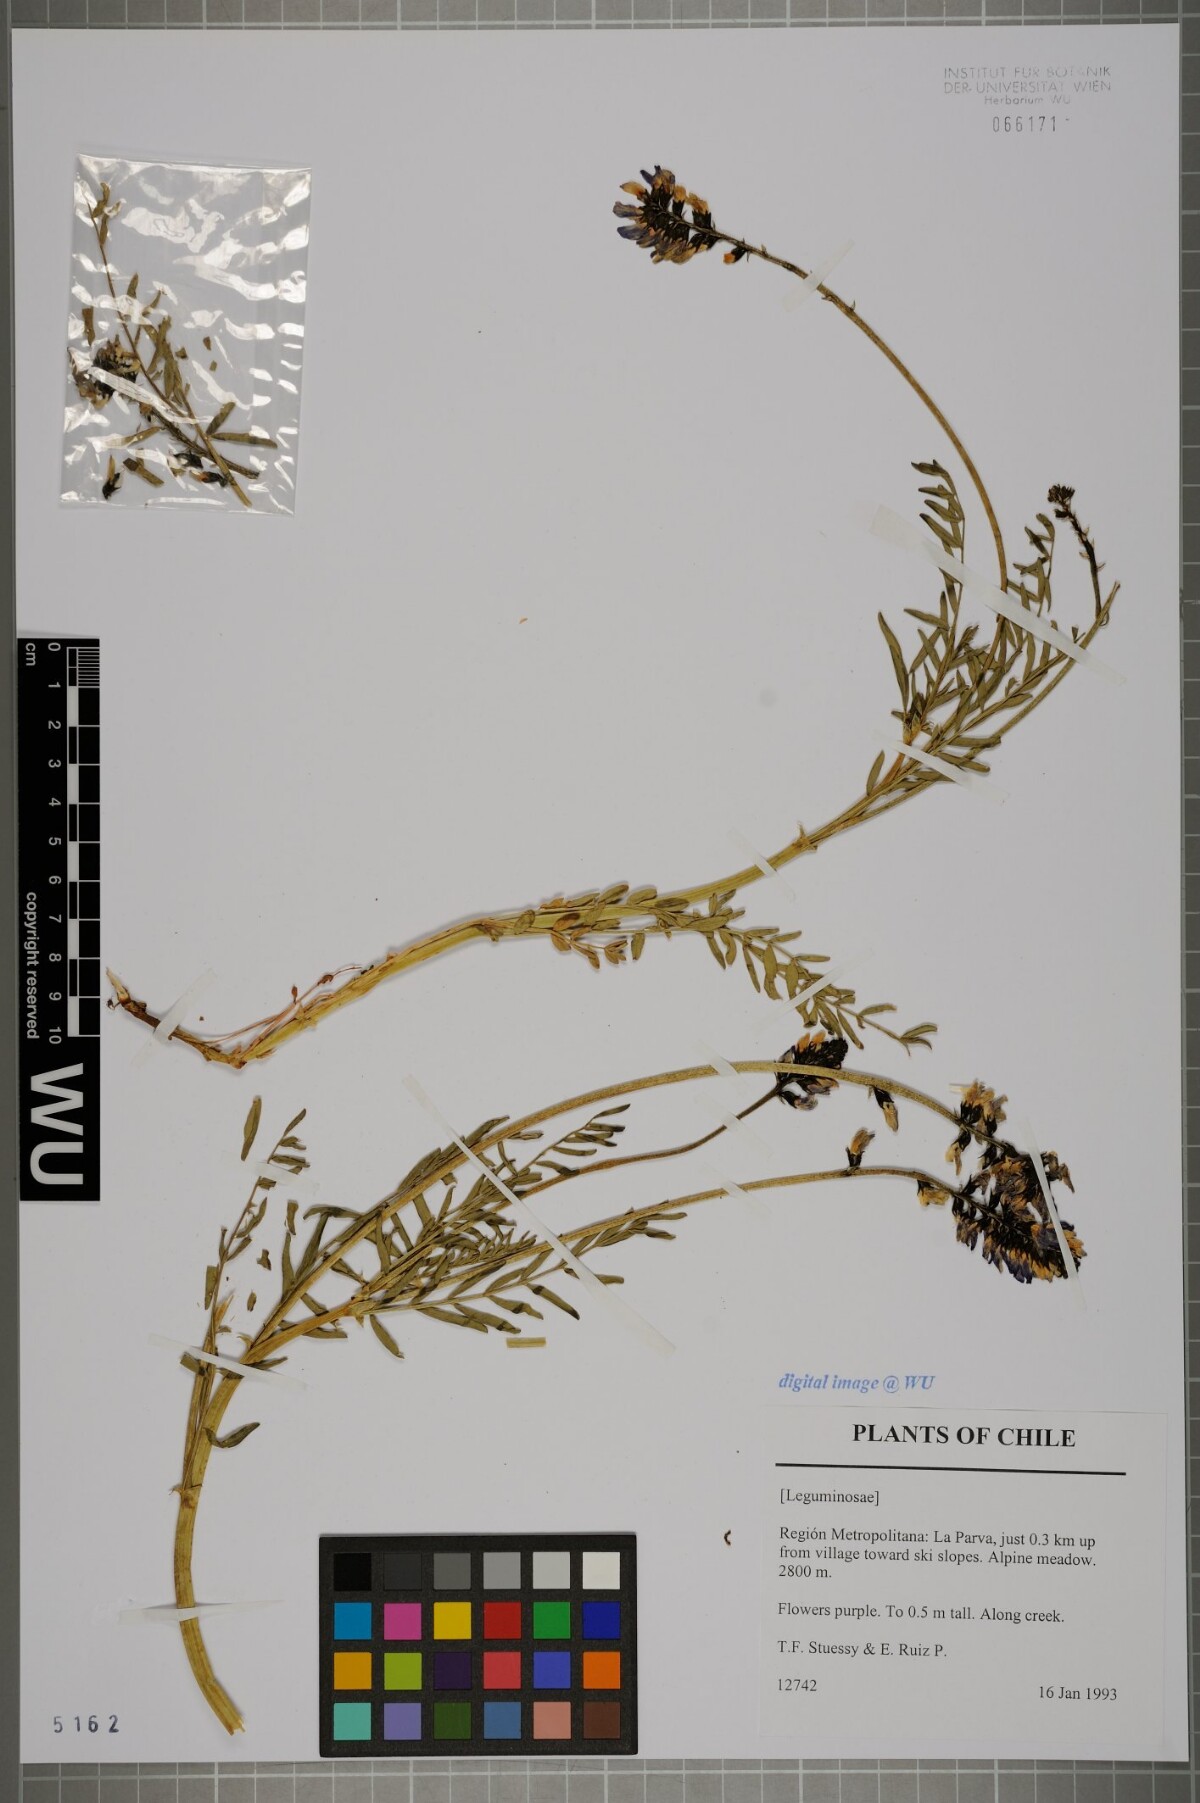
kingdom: Plantae
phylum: Tracheophyta
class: Magnoliopsida
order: Fabales
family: Fabaceae
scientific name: Fabaceae
